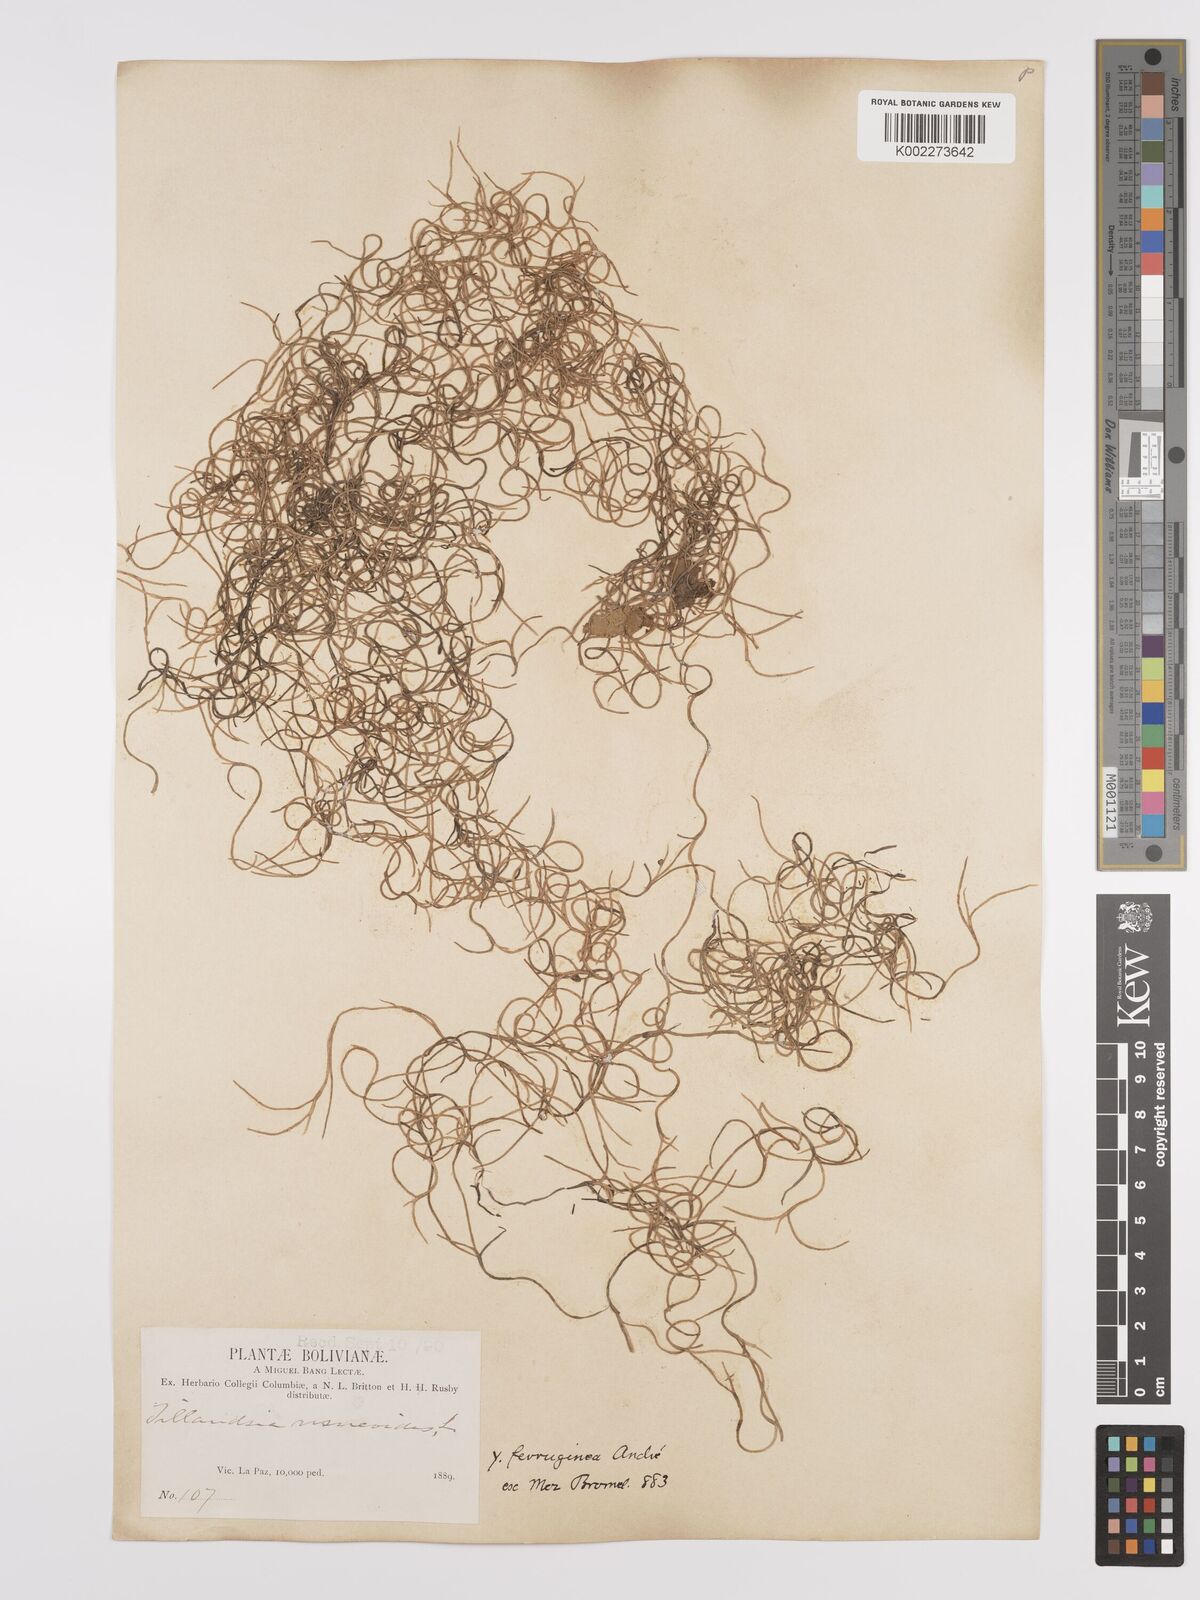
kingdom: Plantae
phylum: Tracheophyta
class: Liliopsida
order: Poales
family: Bromeliaceae
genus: Tillandsia
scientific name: Tillandsia usneoides
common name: Spanish moss
